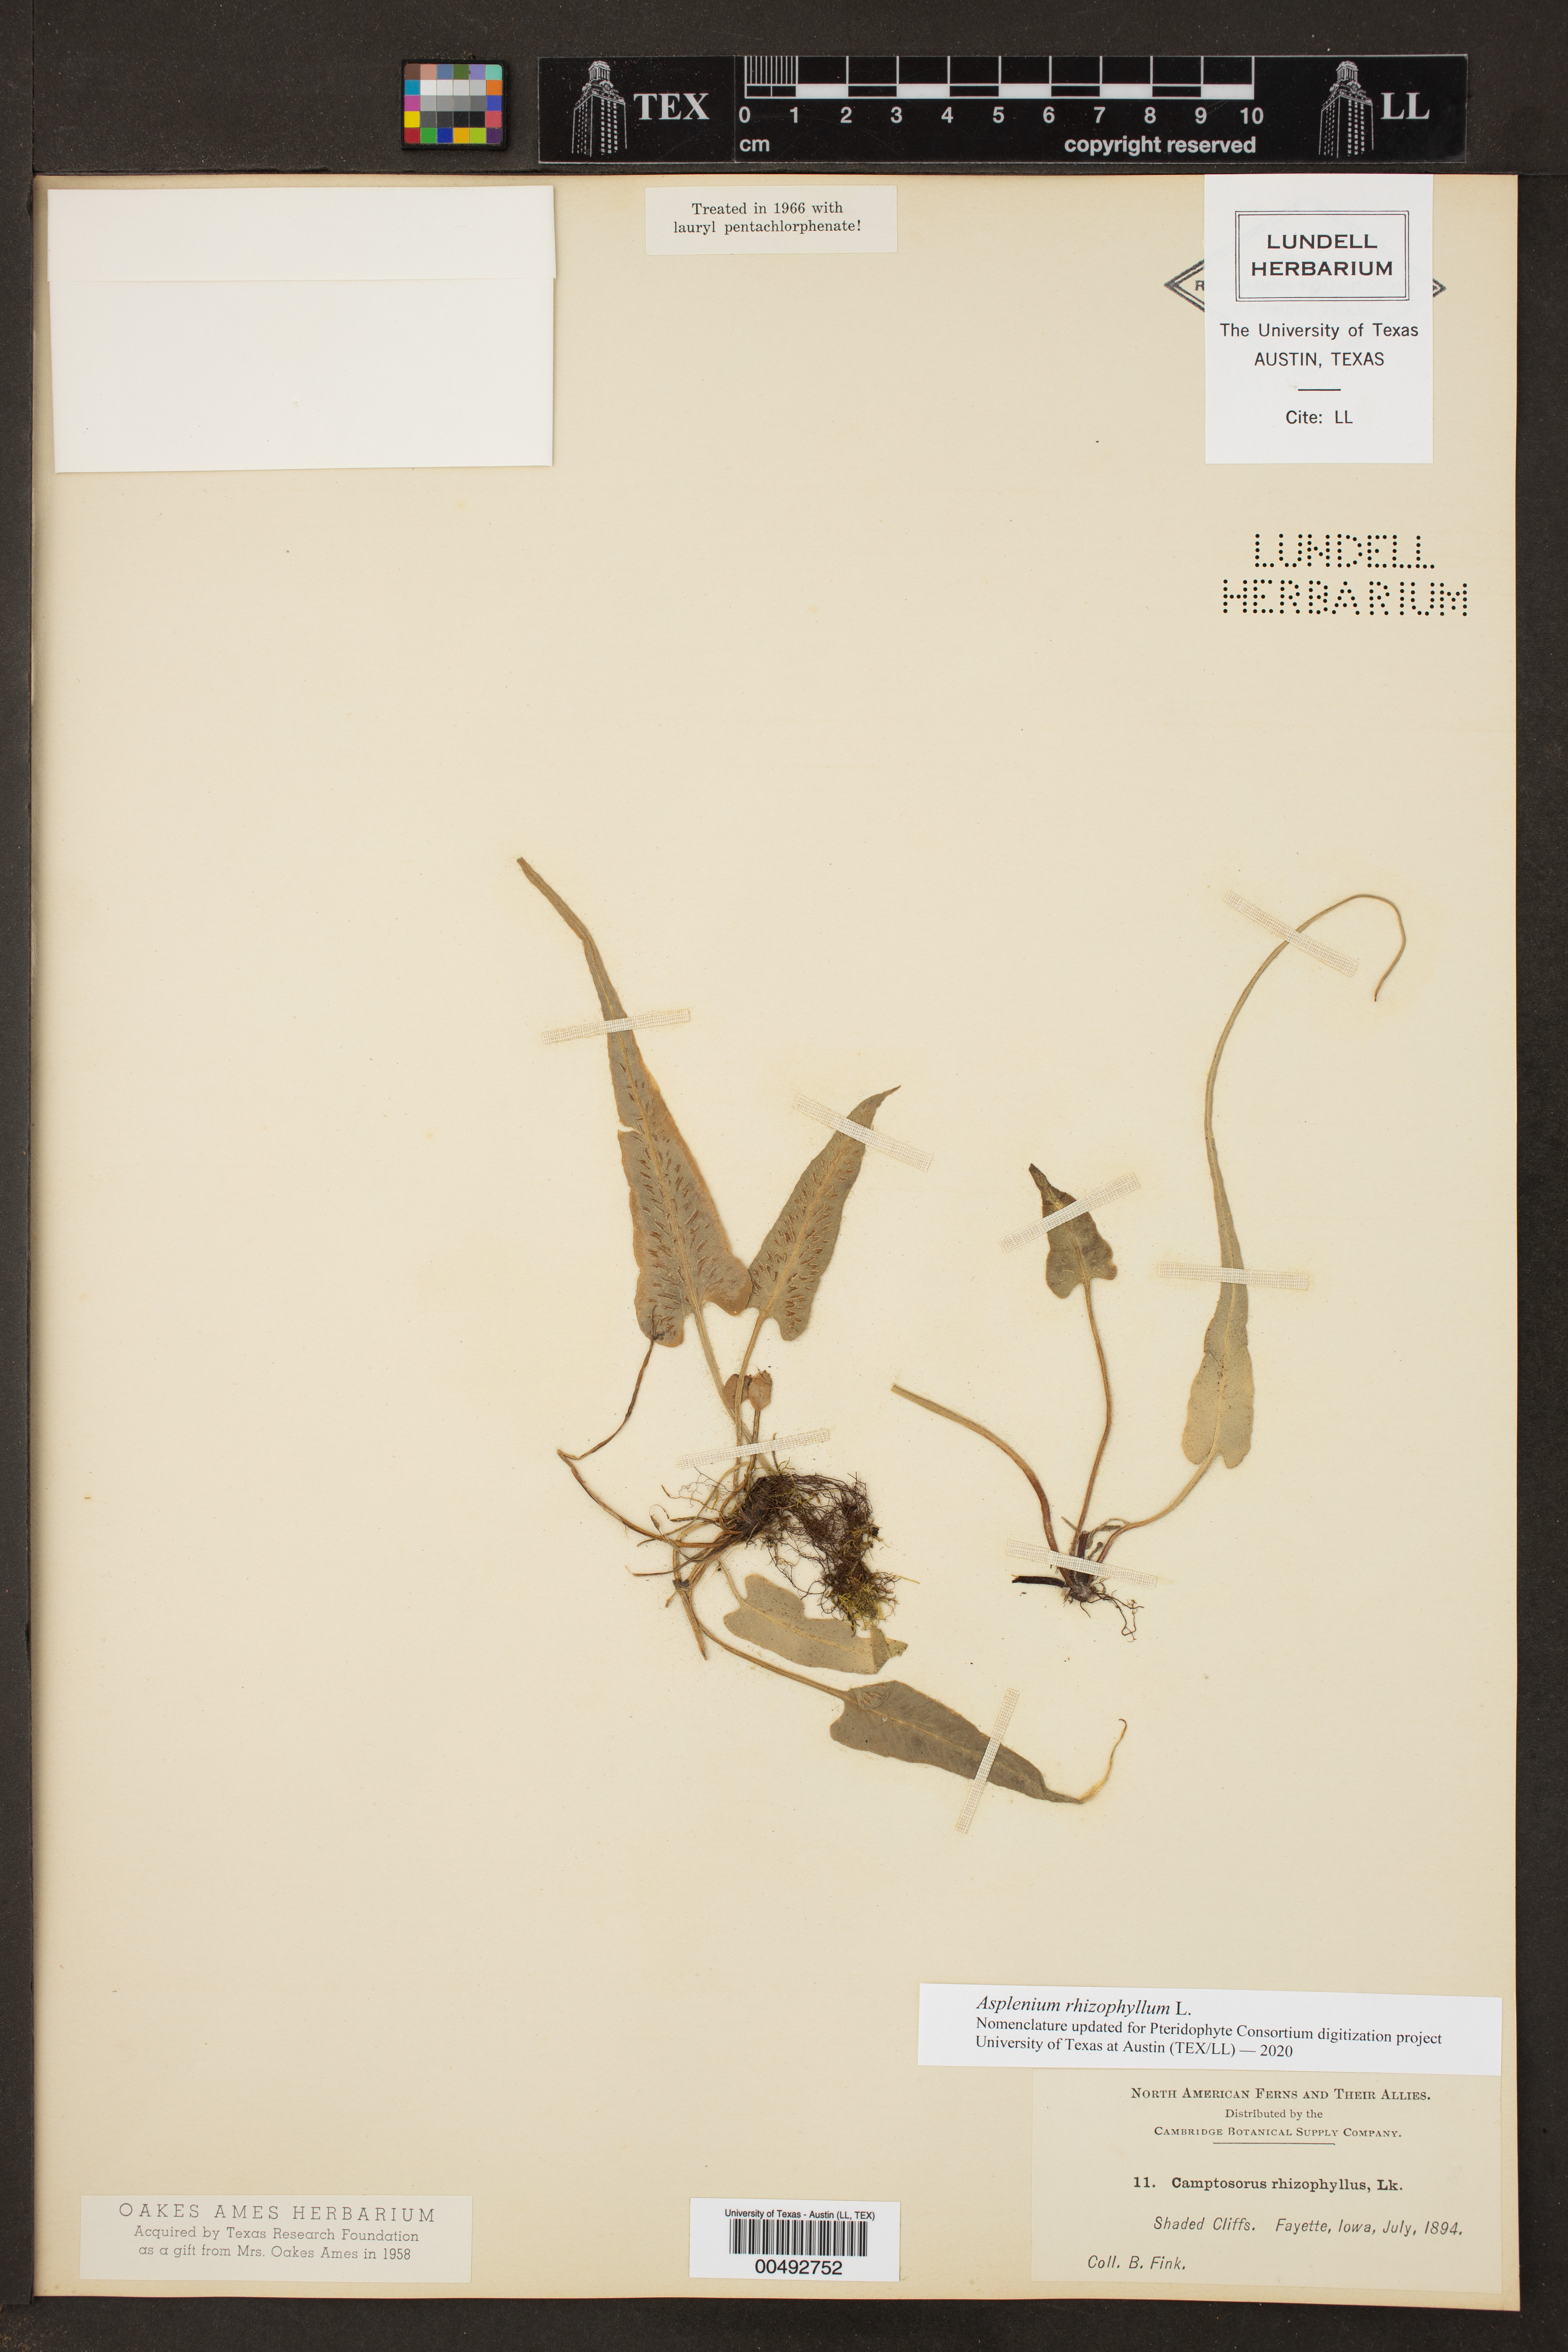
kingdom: Plantae
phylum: Tracheophyta
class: Polypodiopsida
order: Polypodiales
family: Aspleniaceae
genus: Asplenium
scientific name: Asplenium rhizophyllum
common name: Walking fern
